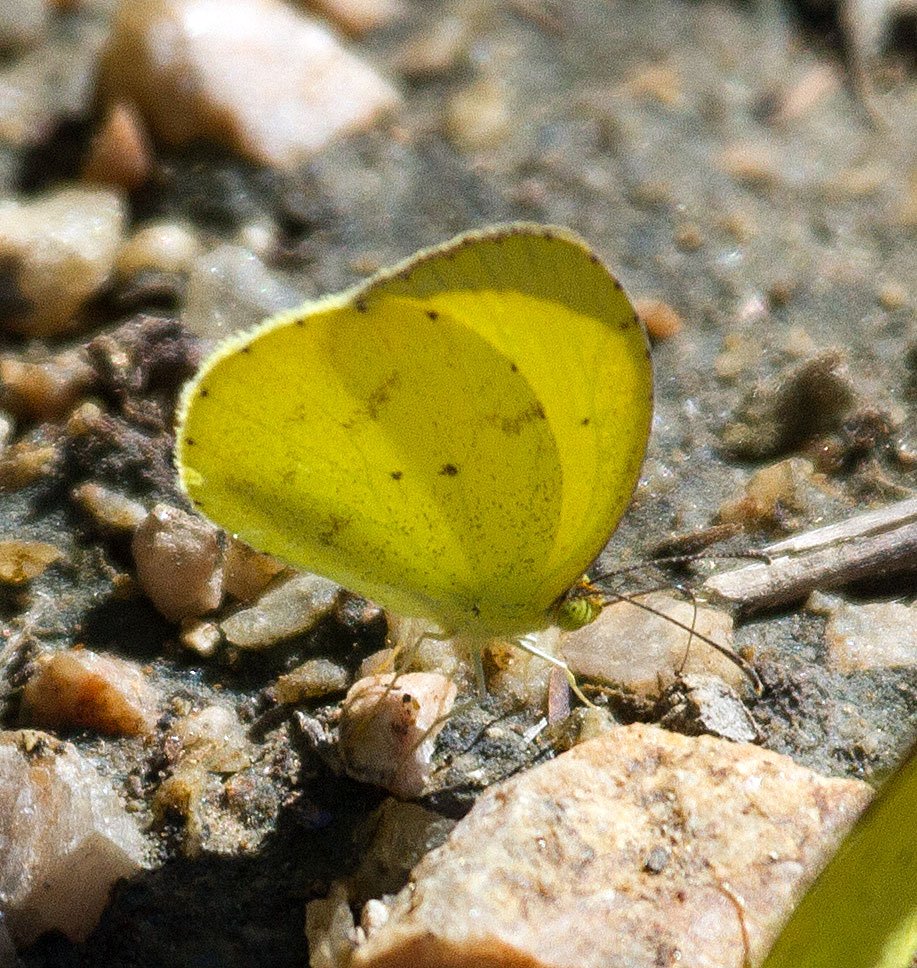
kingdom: Animalia
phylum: Arthropoda
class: Insecta
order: Lepidoptera
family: Pieridae
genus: Pyrisitia
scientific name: Pyrisitia nise
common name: Mimosa Yellow
